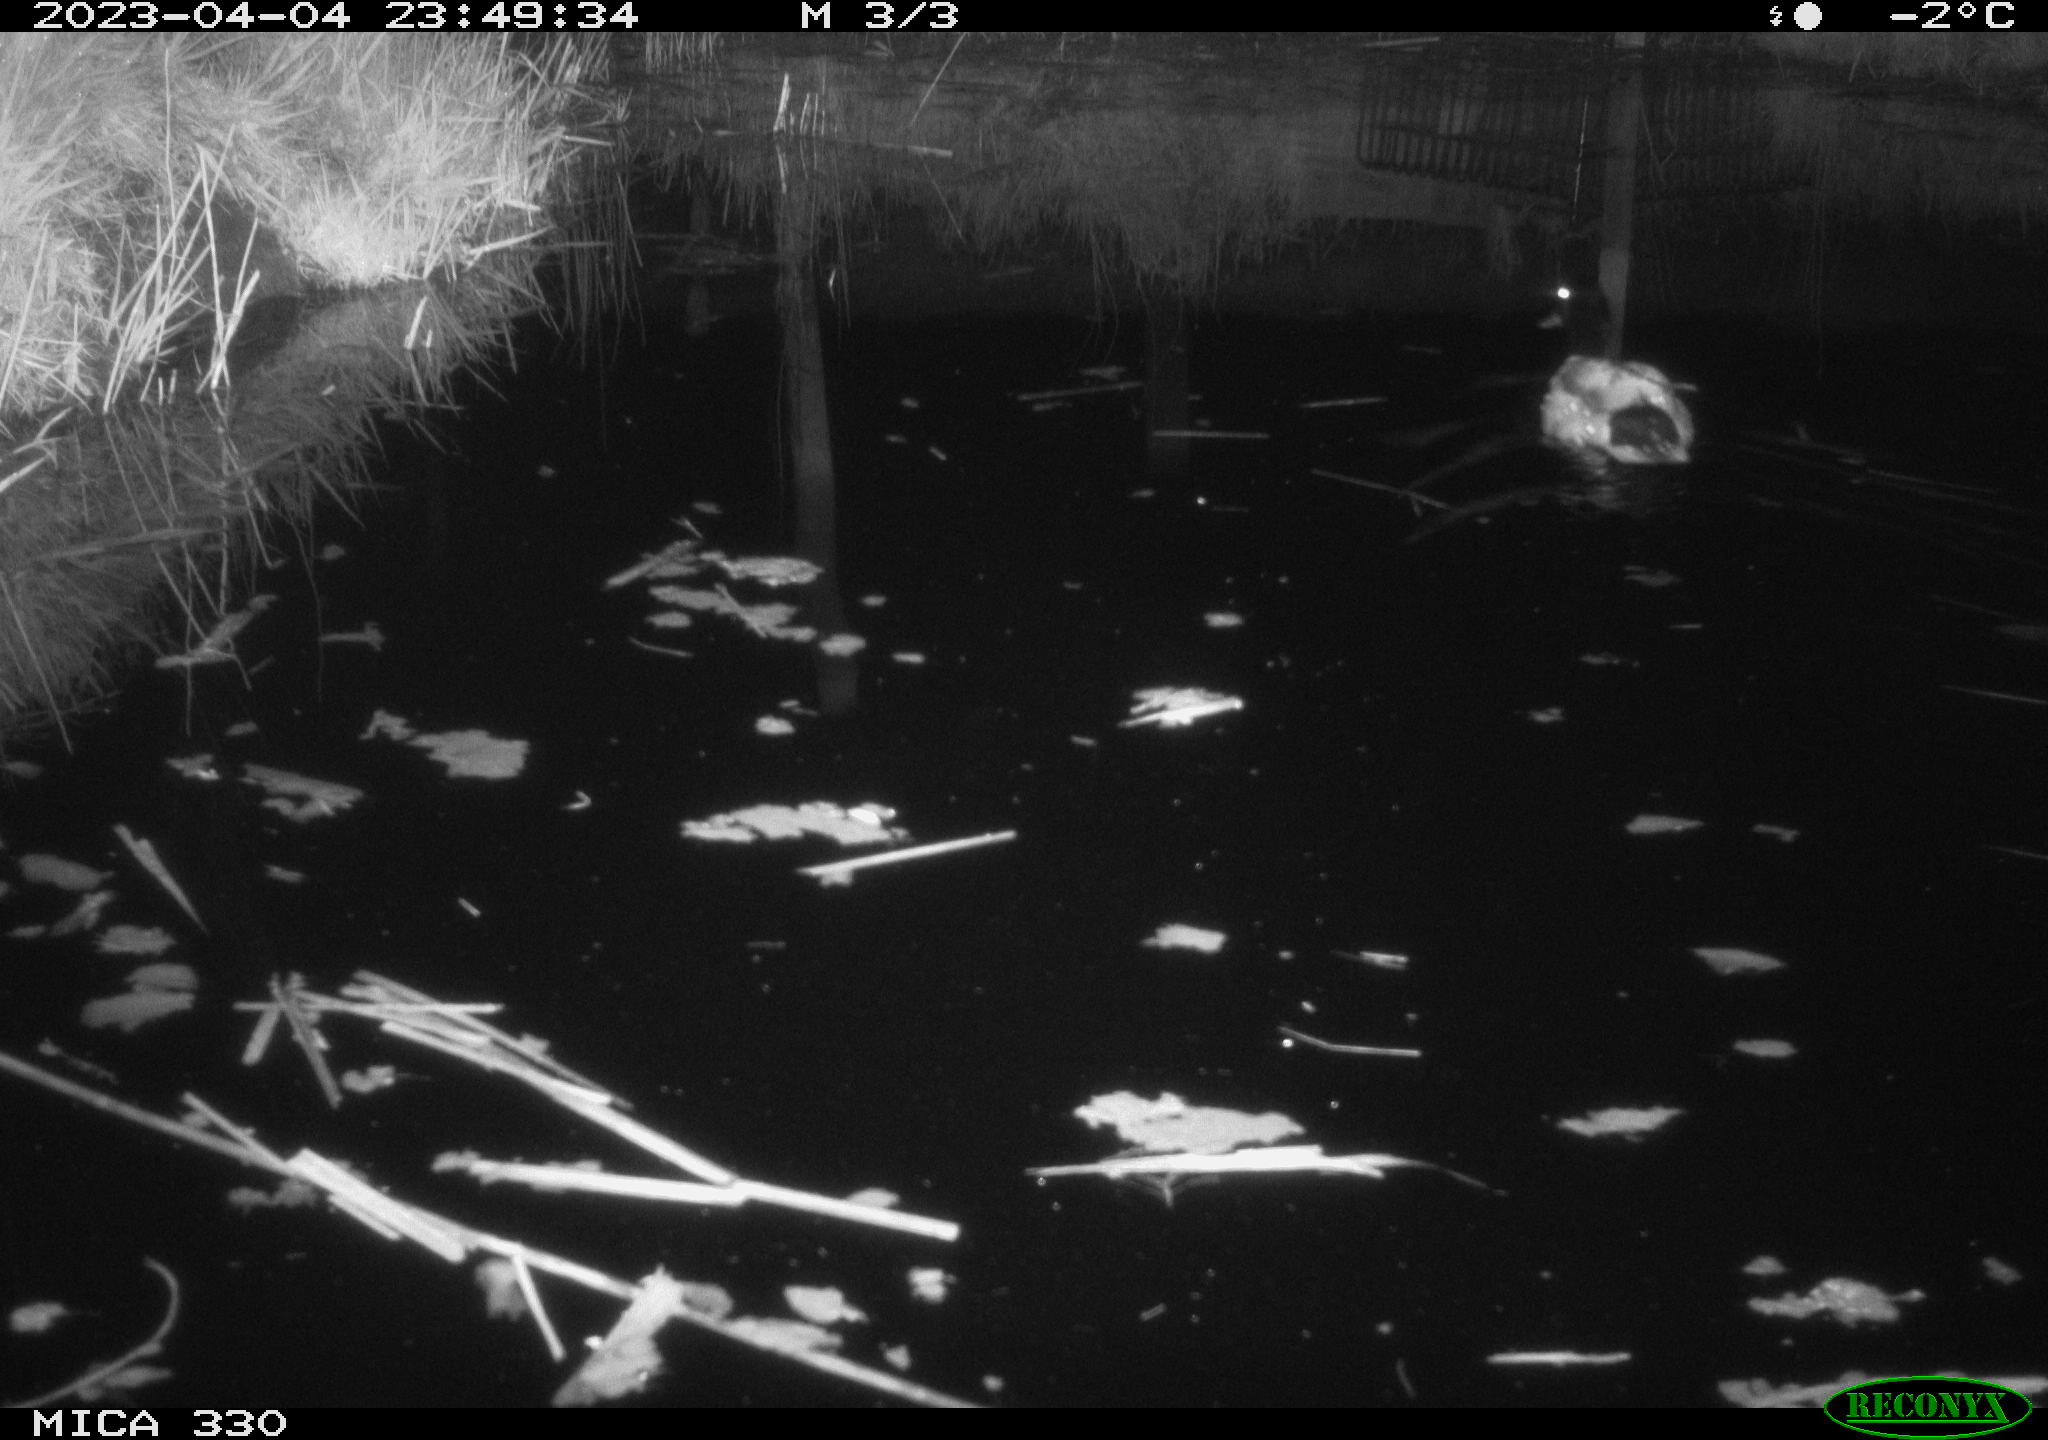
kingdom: Animalia
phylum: Chordata
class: Aves
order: Anseriformes
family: Anatidae
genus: Anas
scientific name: Anas
